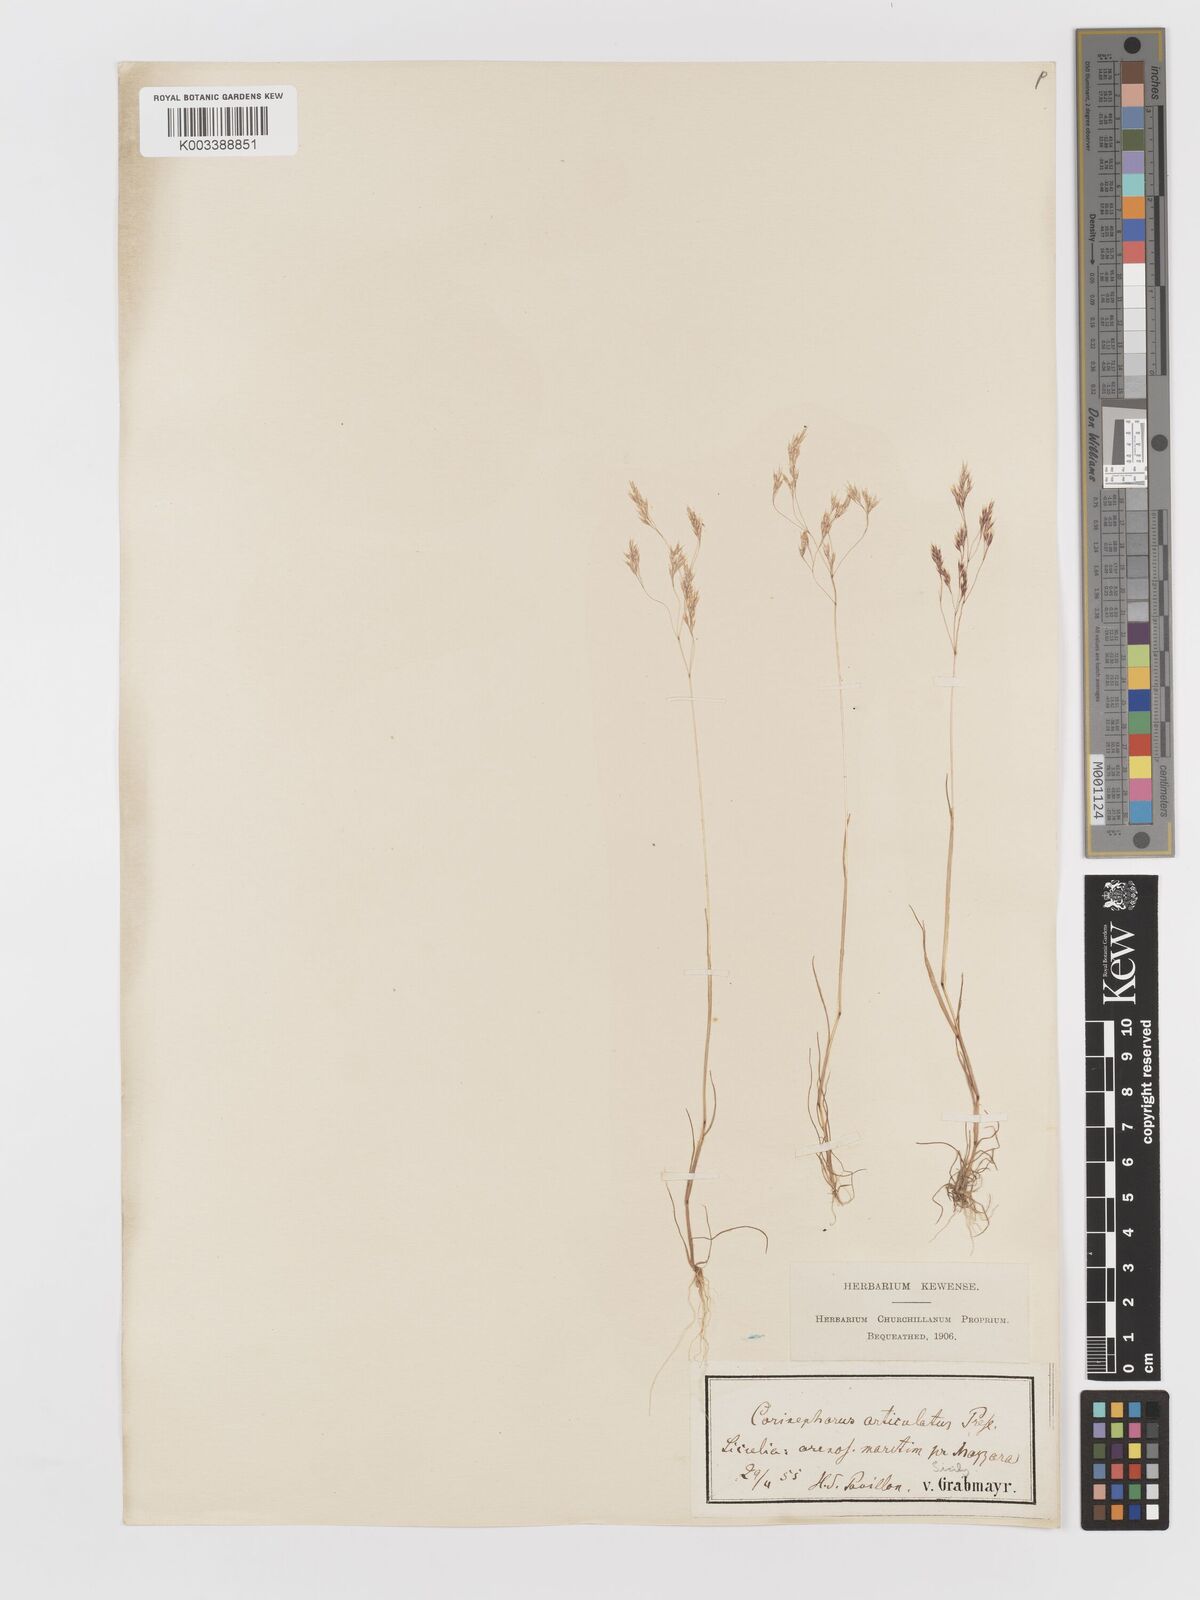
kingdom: Plantae
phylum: Tracheophyta
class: Liliopsida
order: Poales
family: Poaceae
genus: Corynephorus
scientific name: Corynephorus divaricatus
